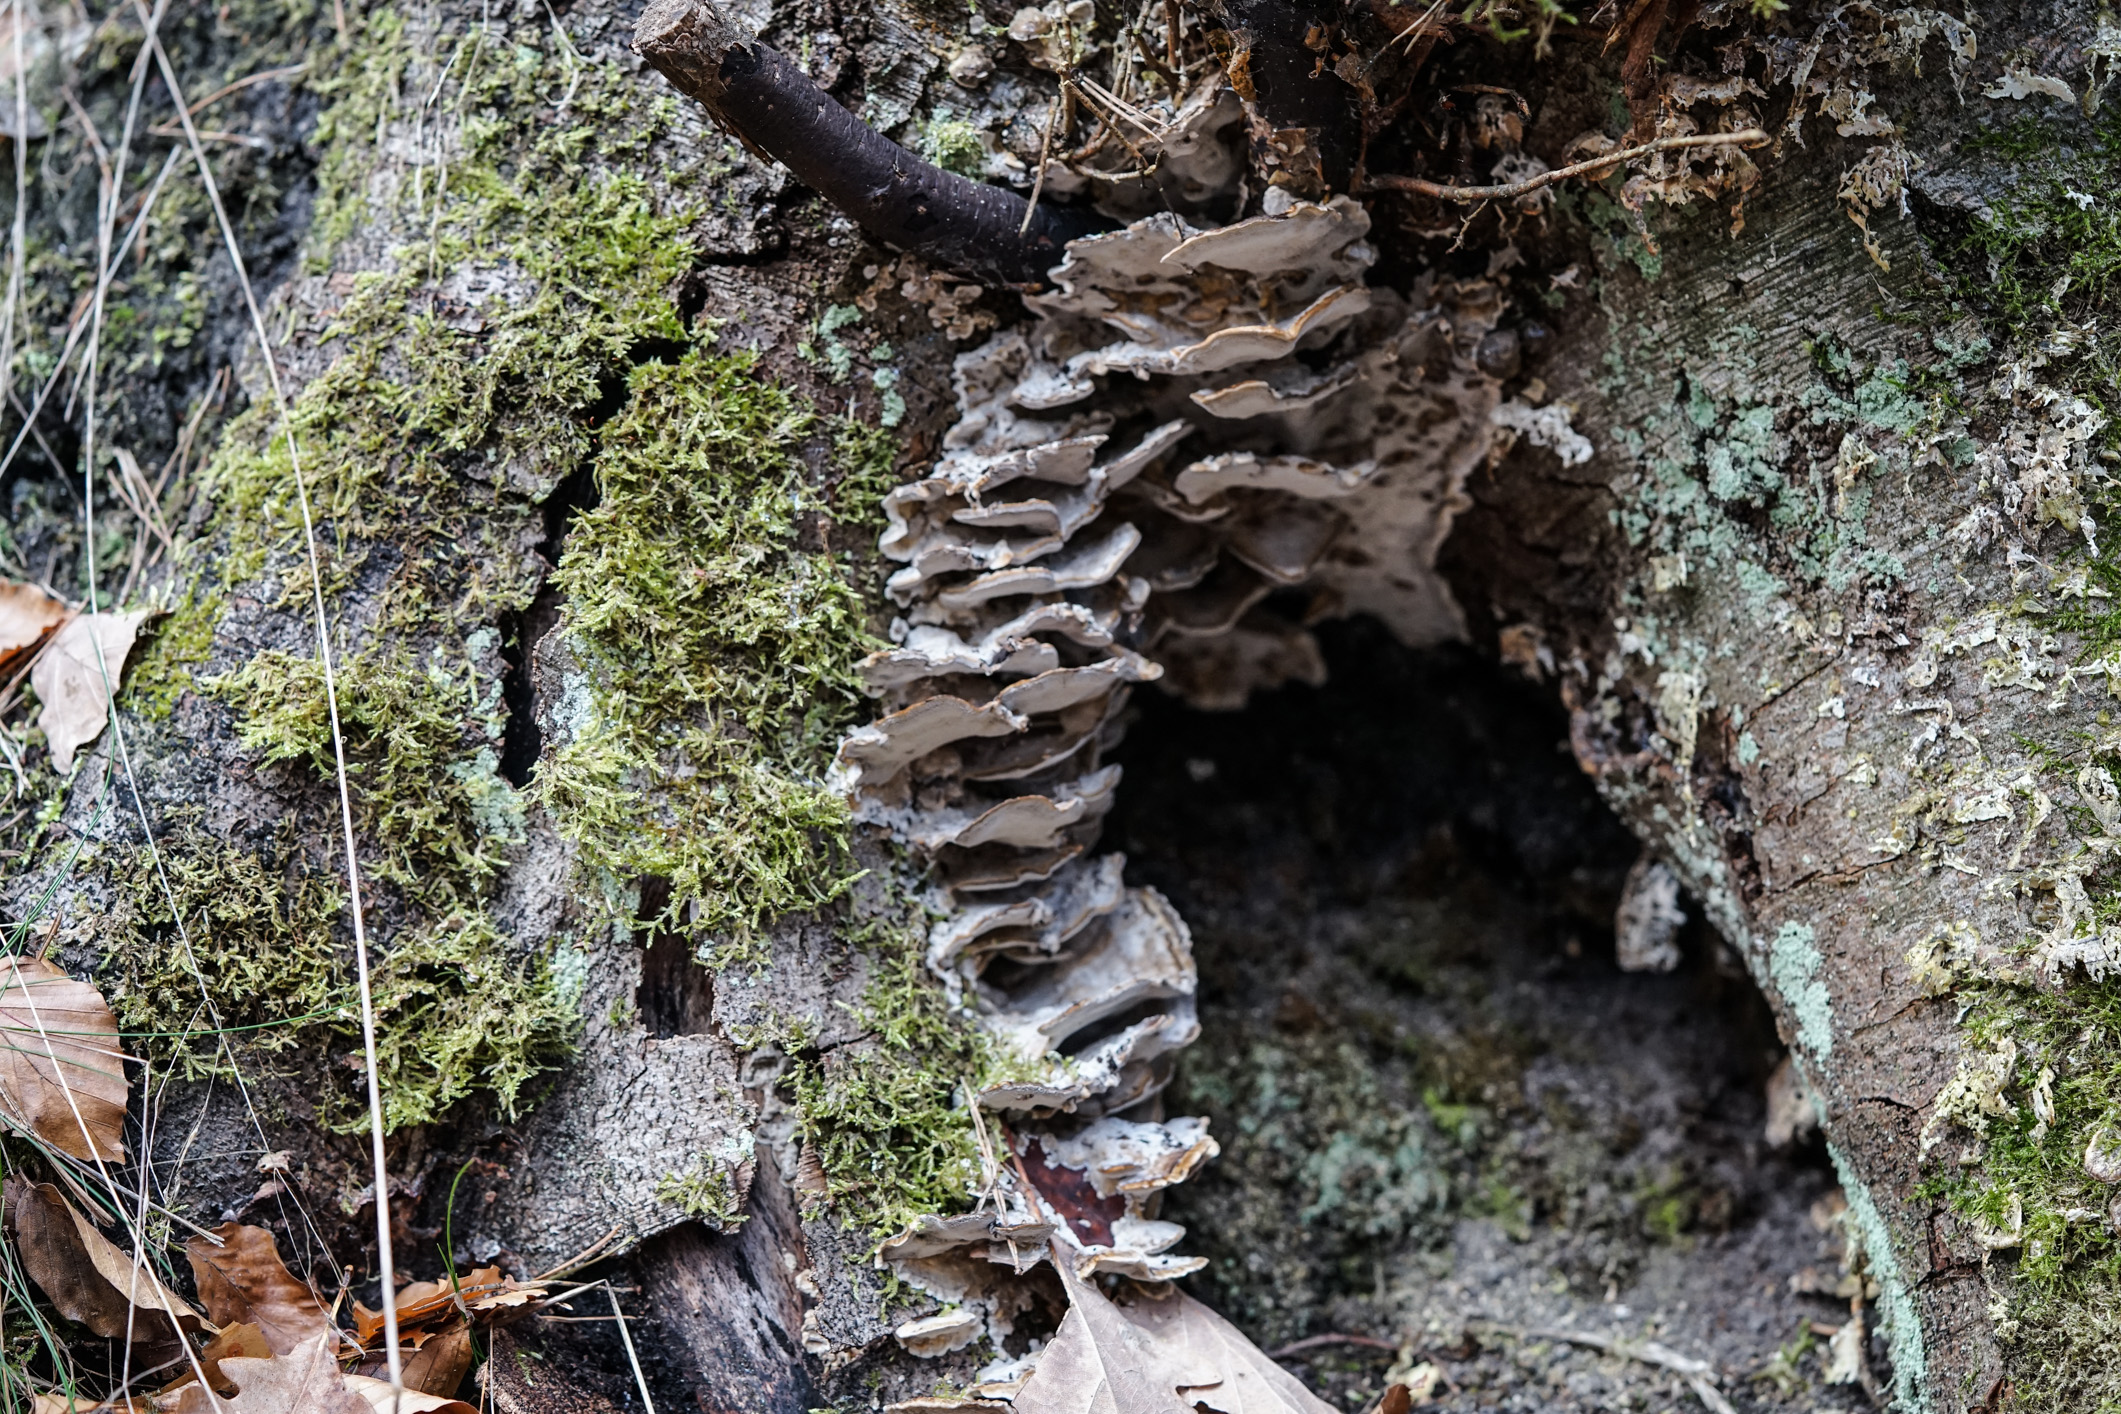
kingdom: Fungi
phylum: Basidiomycota
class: Agaricomycetes
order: Polyporales
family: Phanerochaetaceae
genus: Bjerkandera
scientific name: Bjerkandera adusta
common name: Smoky bracket
